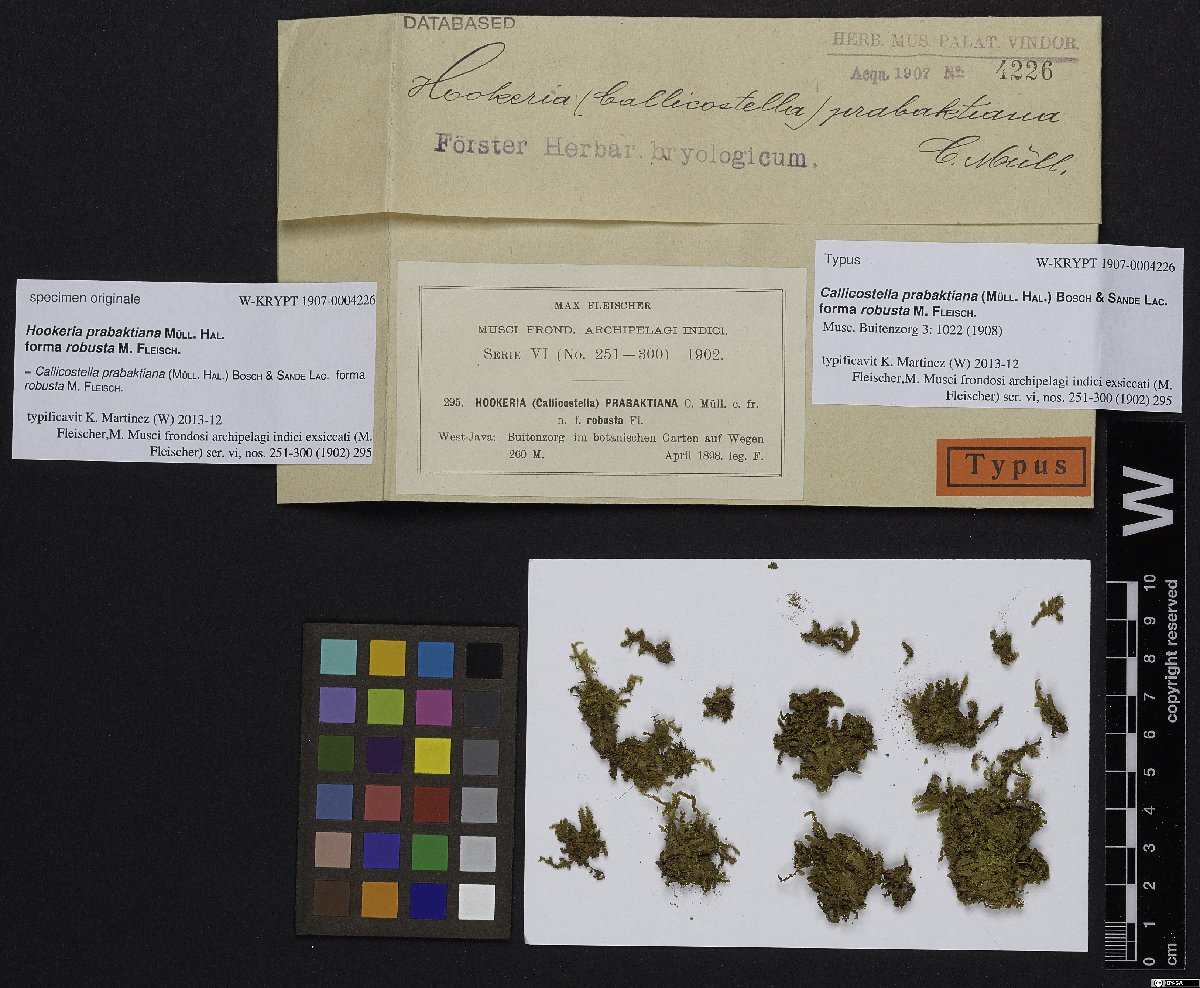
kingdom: Plantae
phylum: Bryophyta
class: Bryopsida
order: Hookeriales
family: Pilotrichaceae
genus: Callicostella
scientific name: Callicostella papillata
